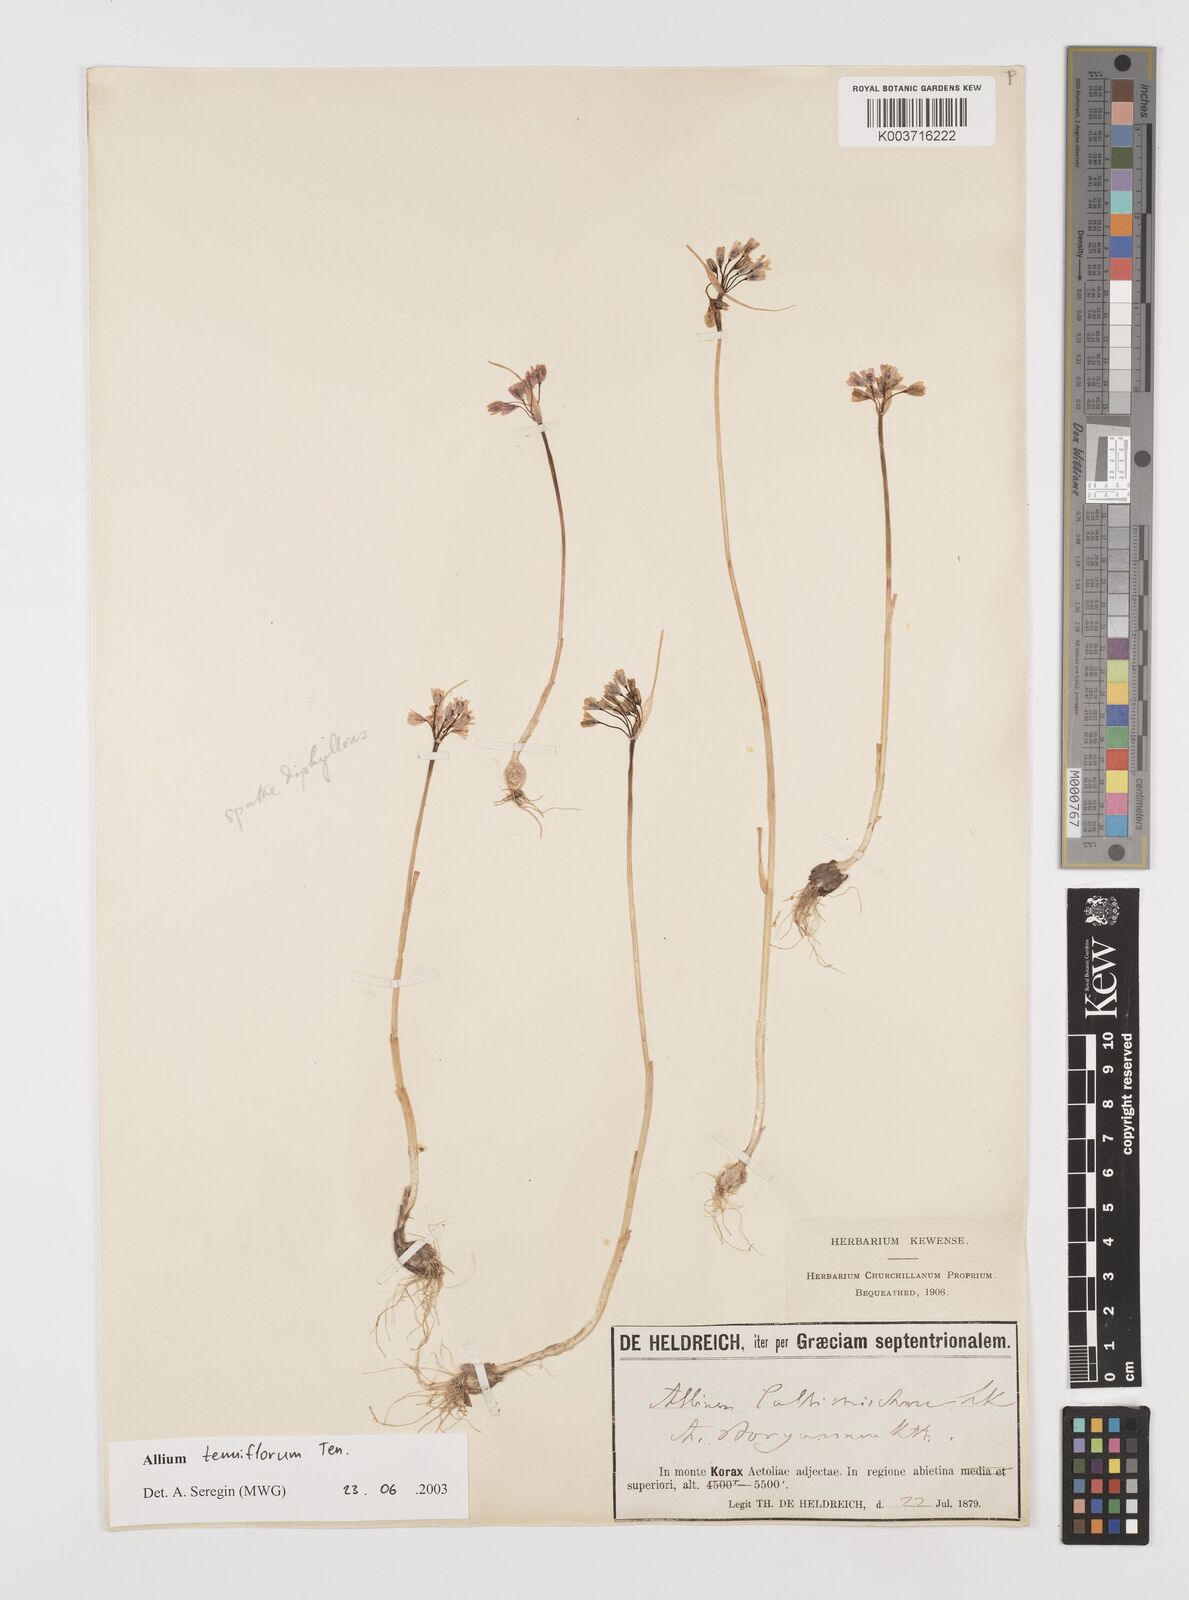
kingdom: Plantae
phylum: Tracheophyta
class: Liliopsida
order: Asparagales
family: Amaryllidaceae
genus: Allium
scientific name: Allium tenuiflorum
